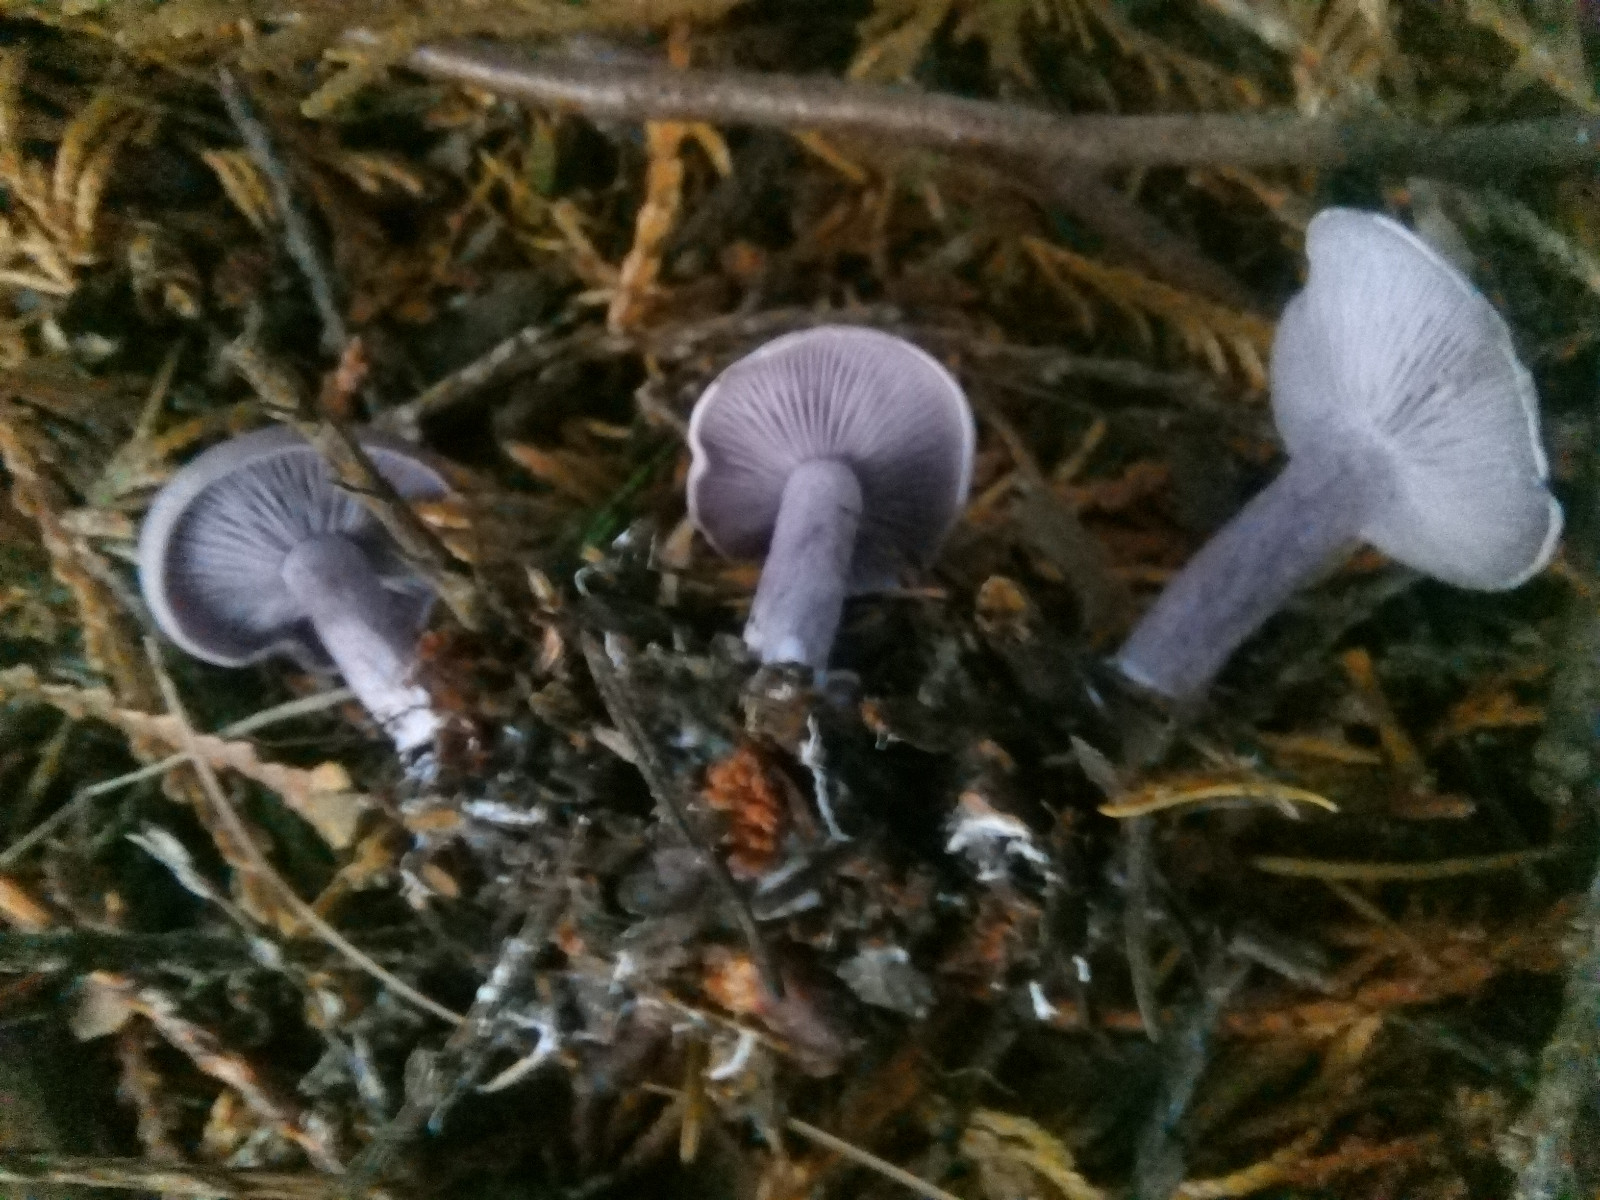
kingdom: Fungi
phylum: Basidiomycota
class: Agaricomycetes
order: Agaricales
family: Tricholomataceae
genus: Lepista
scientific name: Lepista lilacea
